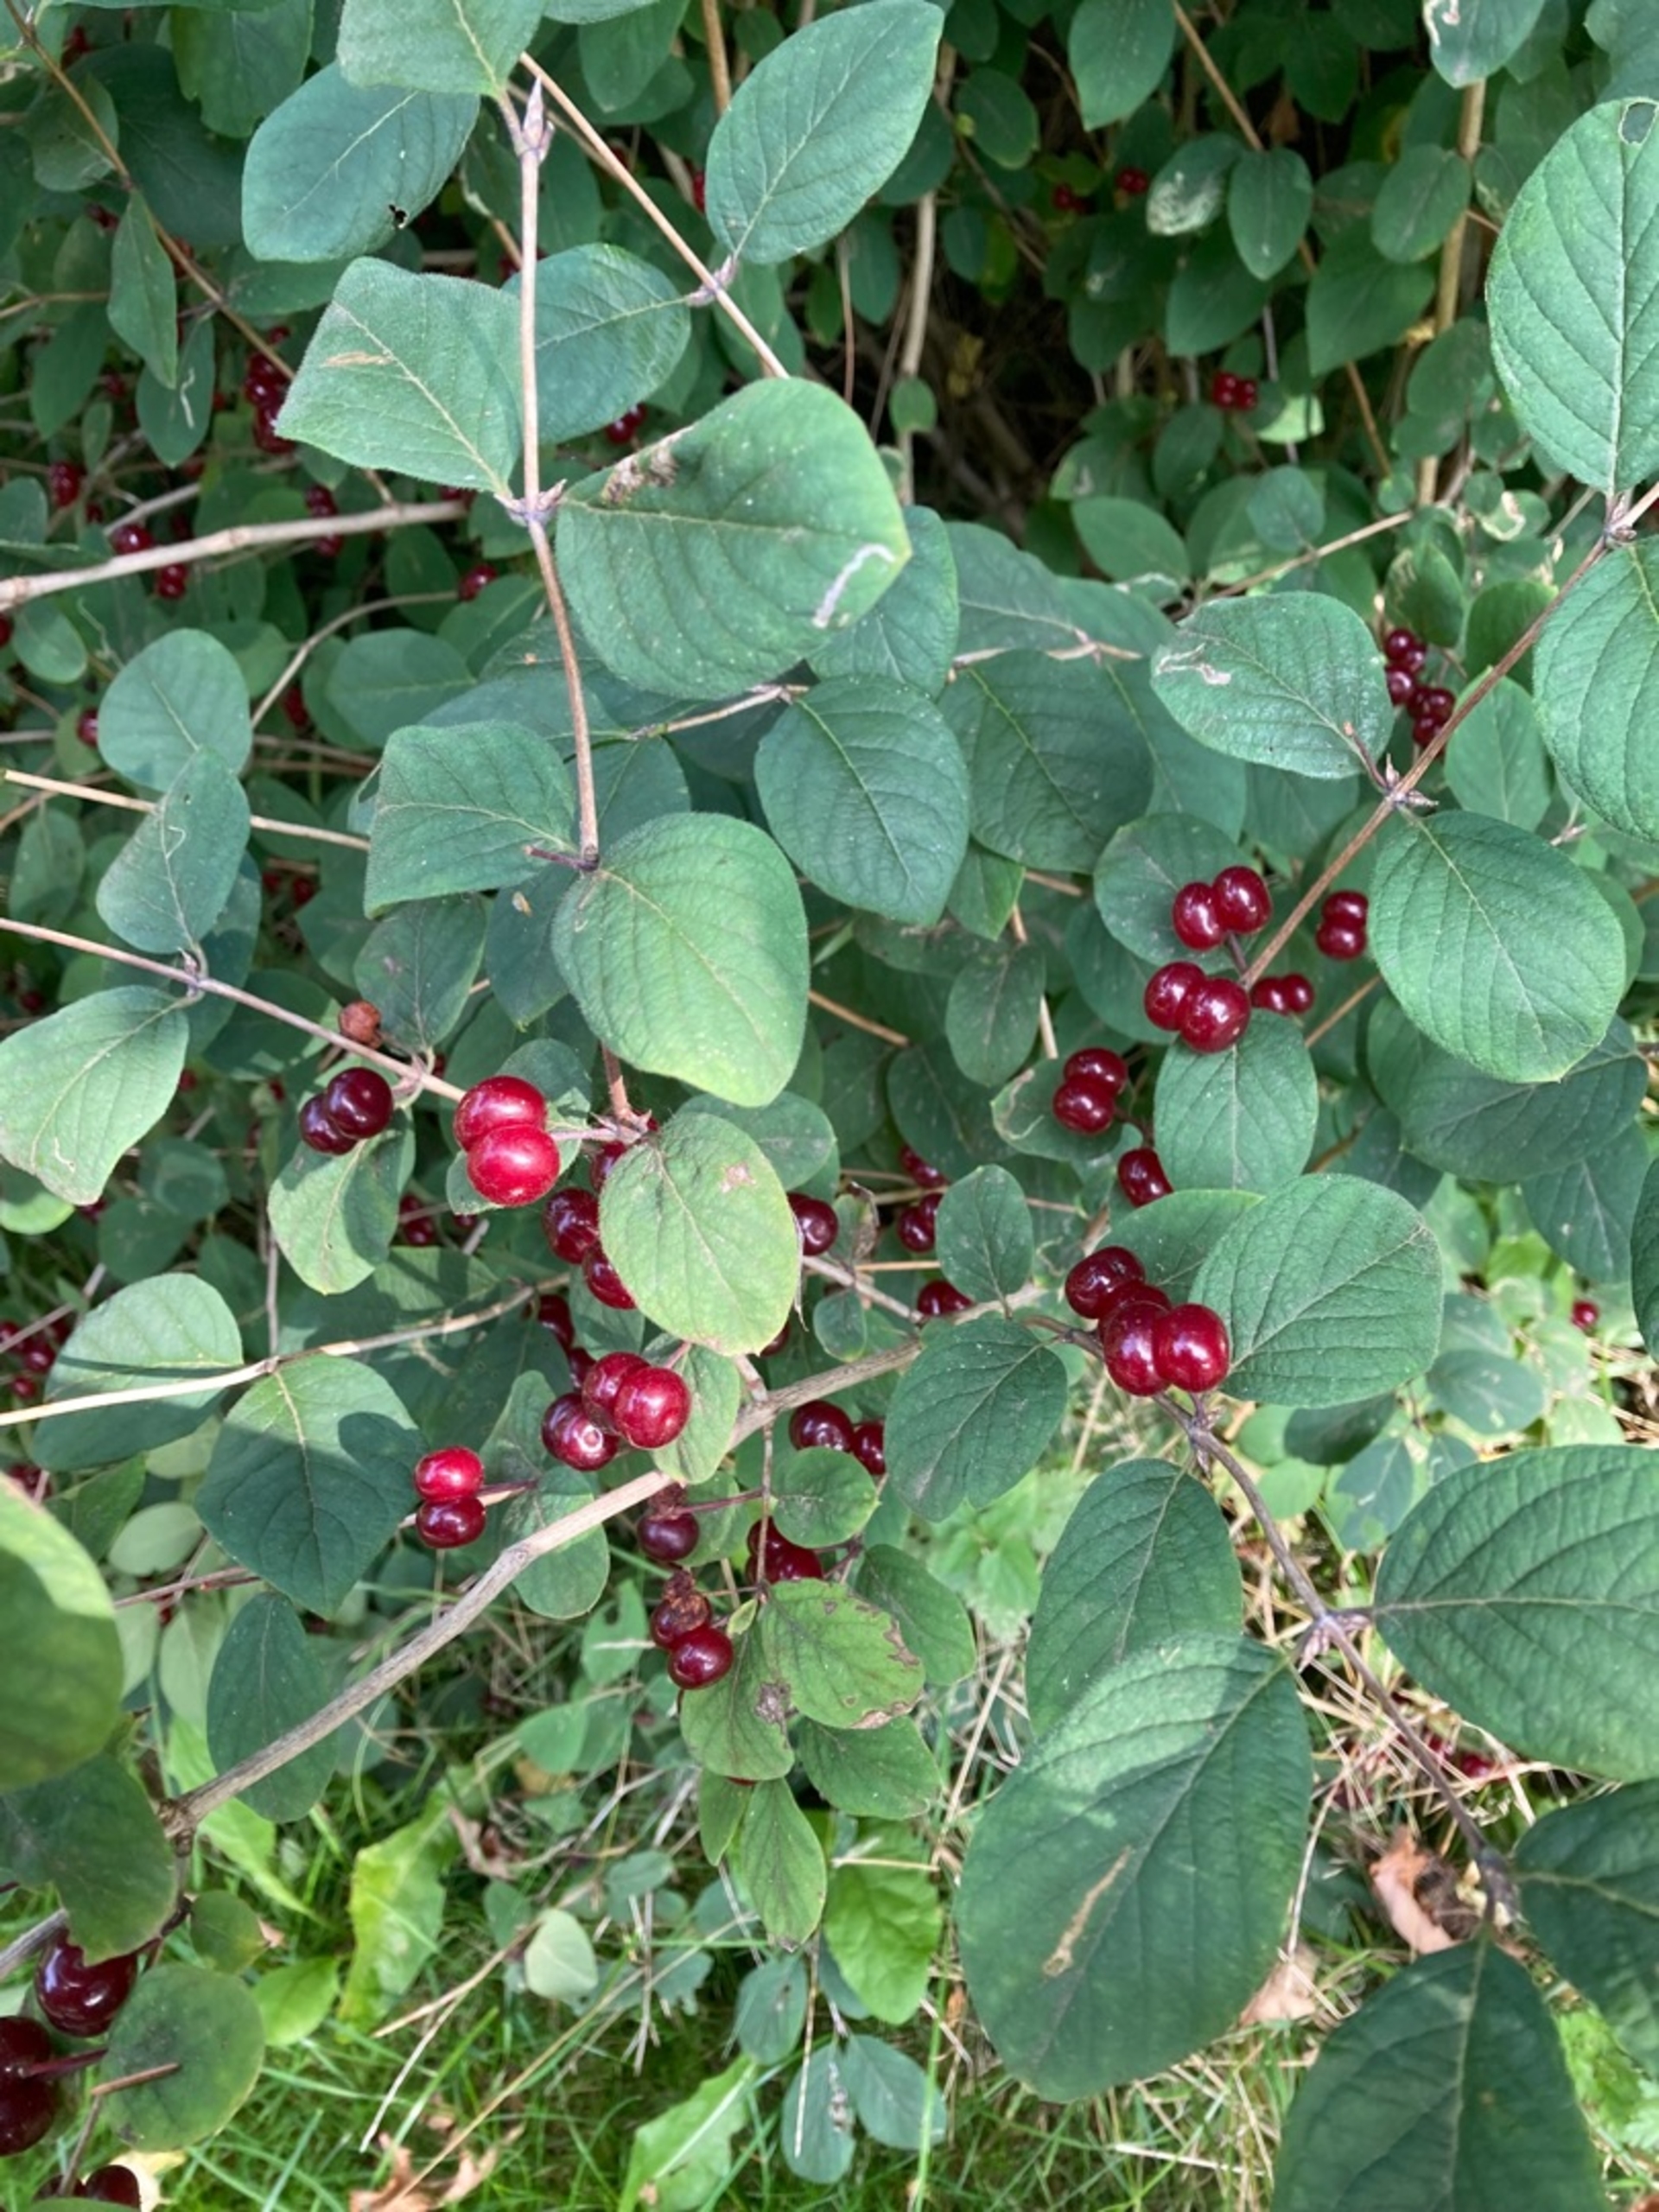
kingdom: Plantae
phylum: Tracheophyta
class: Magnoliopsida
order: Dipsacales
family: Caprifoliaceae
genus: Lonicera
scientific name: Lonicera xylosteum
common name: Dunet gedeblad
